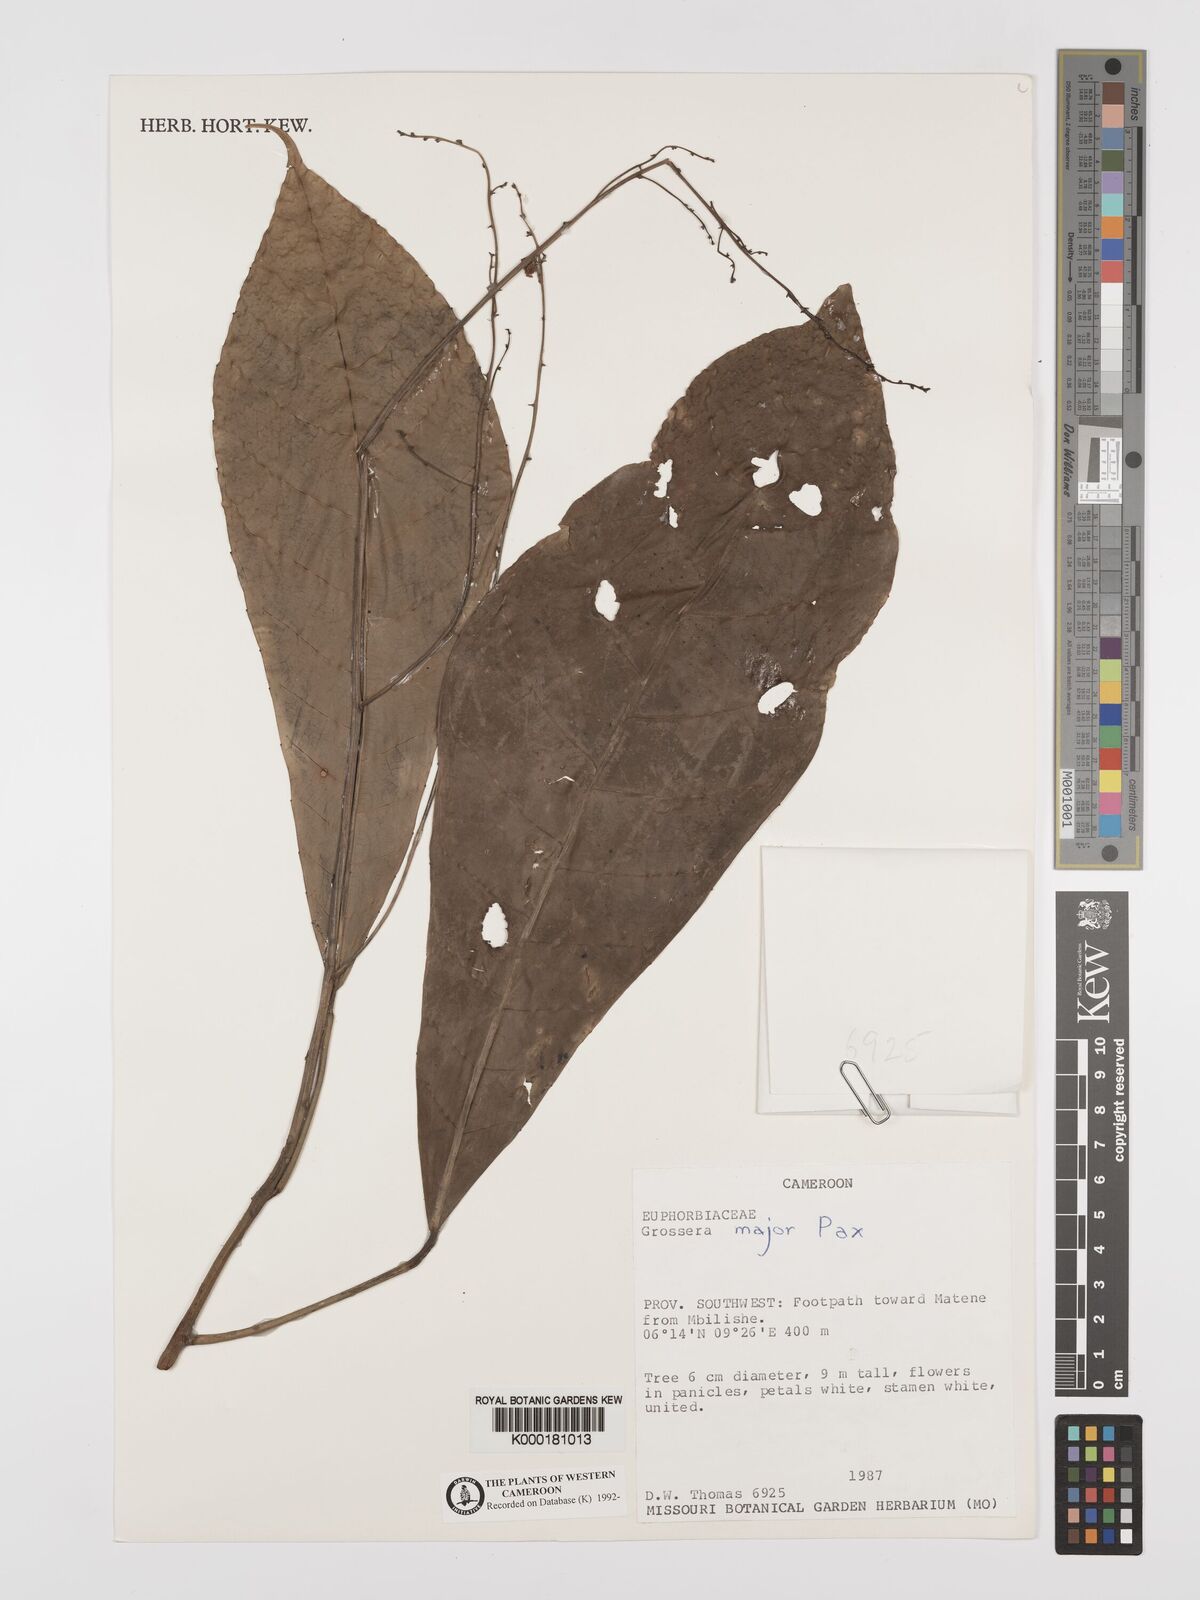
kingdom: Plantae
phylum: Tracheophyta
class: Magnoliopsida
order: Malpighiales
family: Euphorbiaceae
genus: Grossera
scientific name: Grossera major
